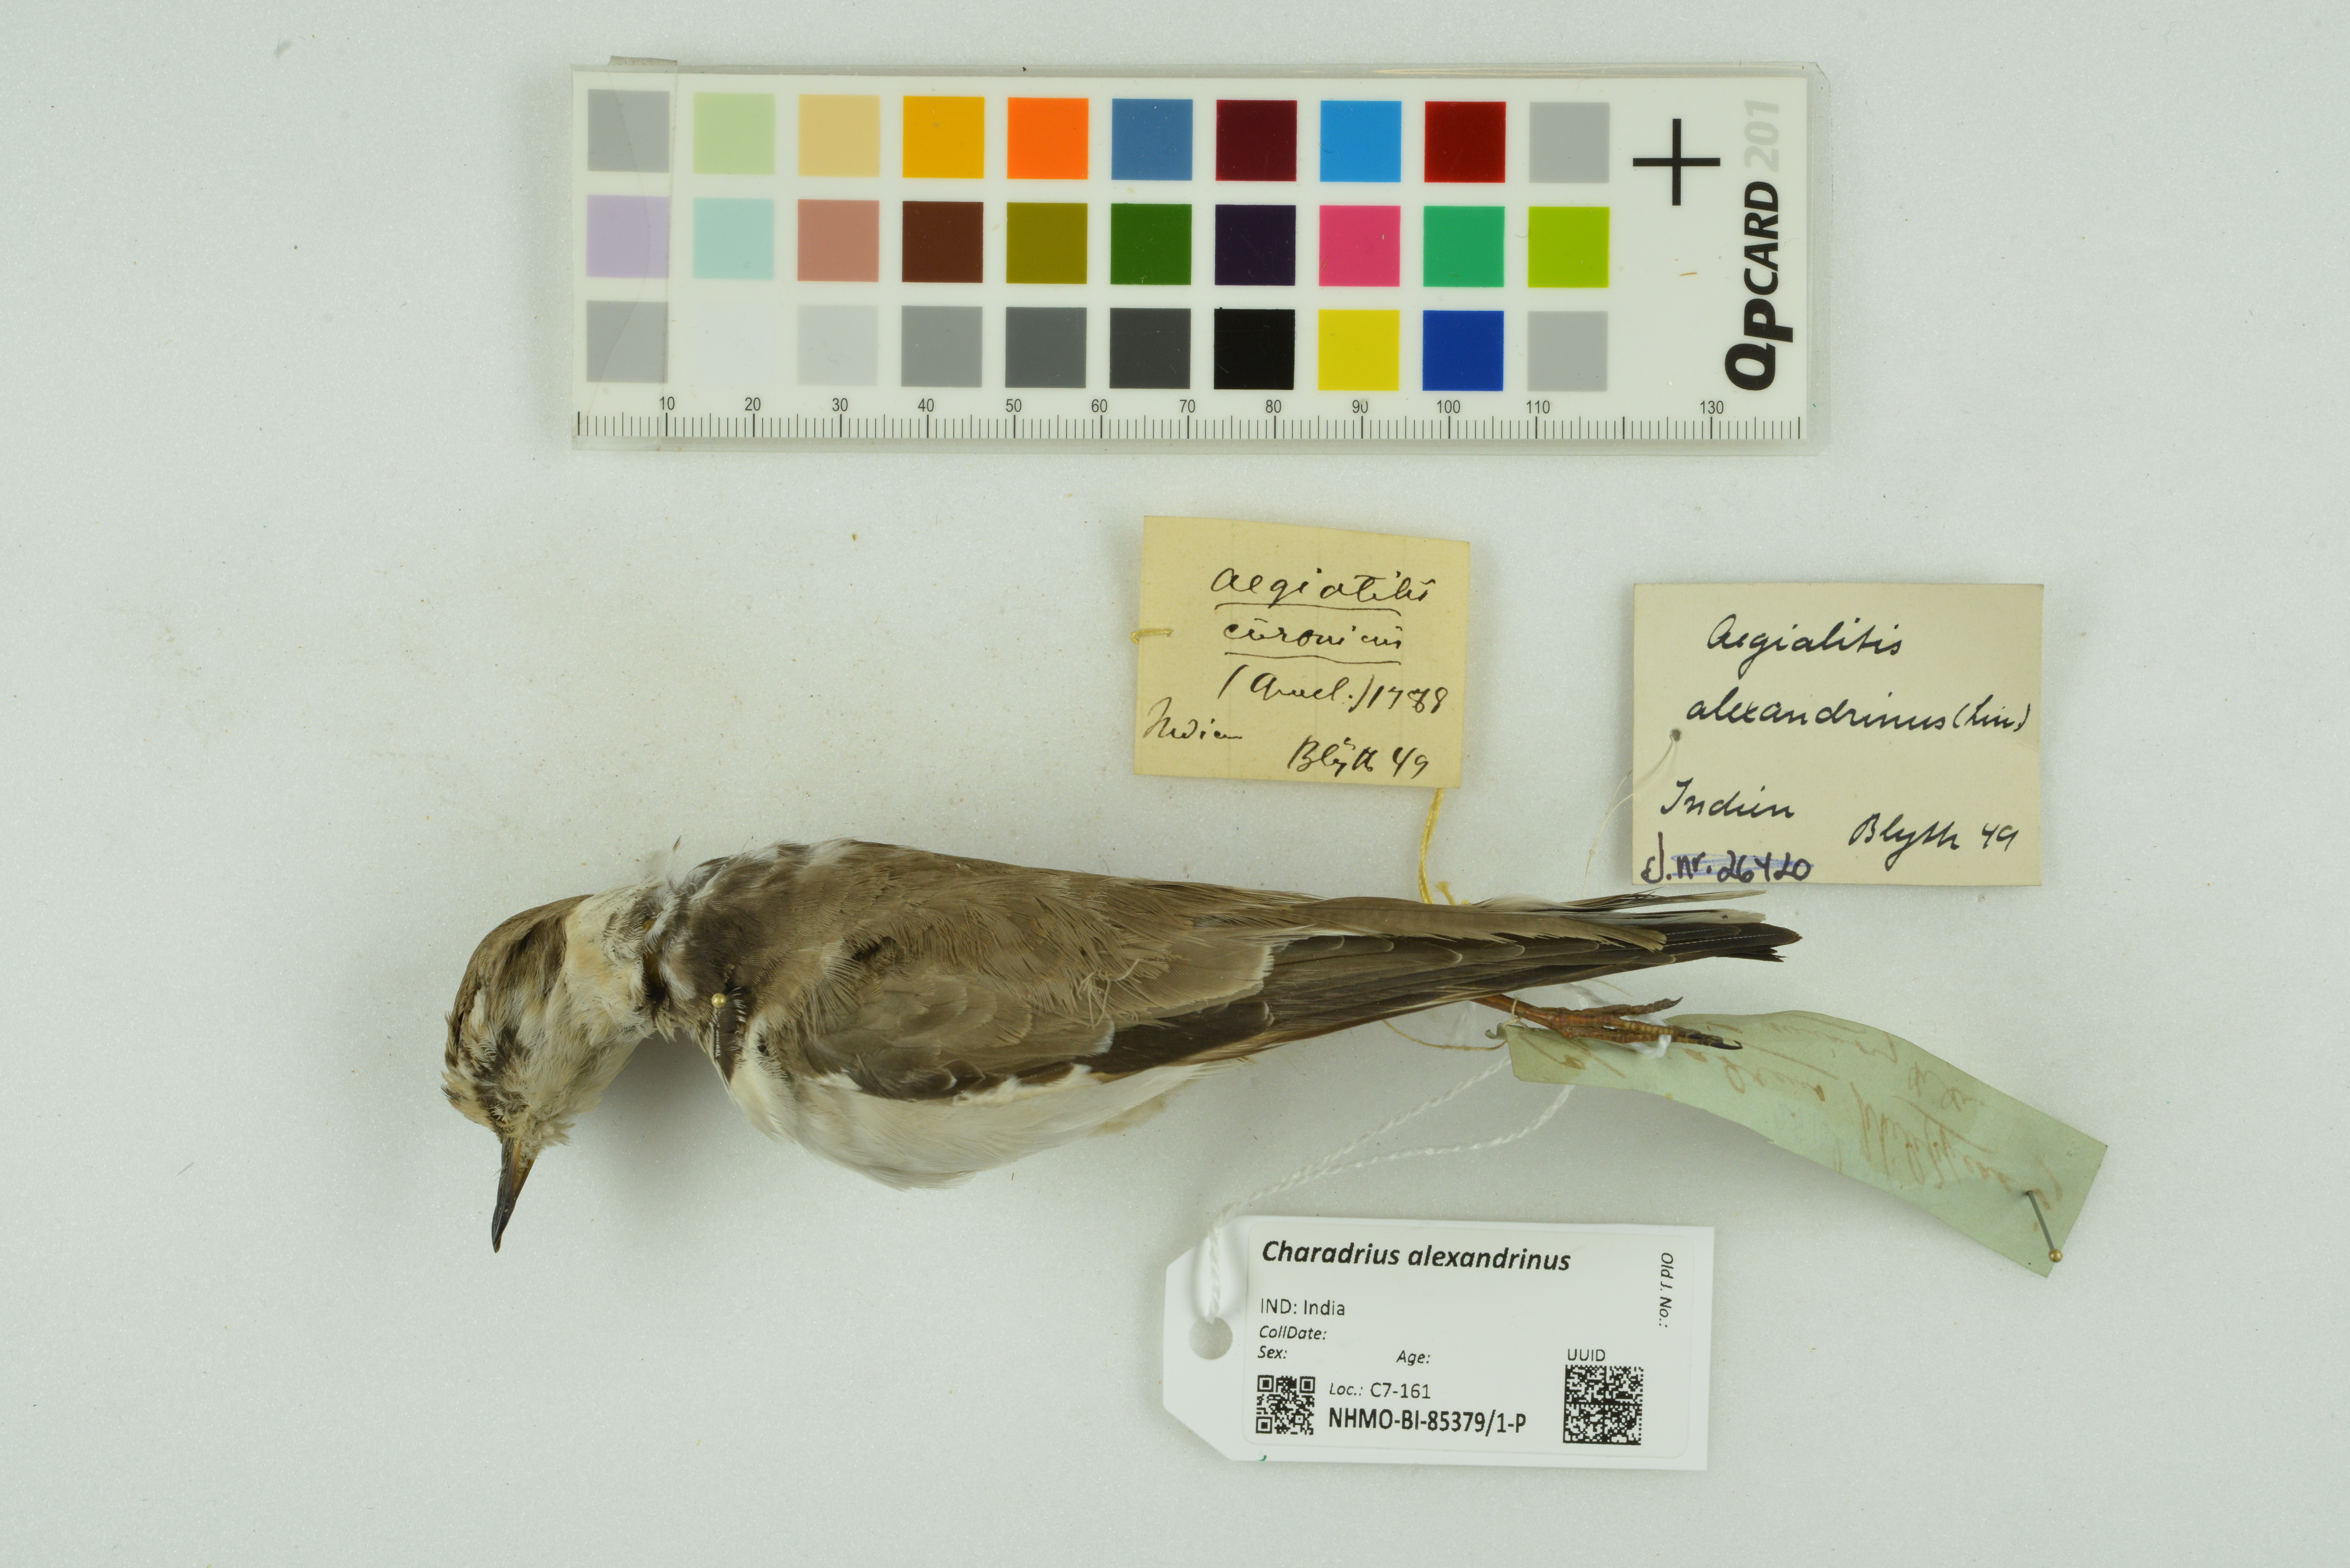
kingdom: Animalia
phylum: Chordata
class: Aves
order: Charadriiformes
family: Charadriidae
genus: Charadrius
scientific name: Charadrius alexandrinus
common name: Kentish plover
